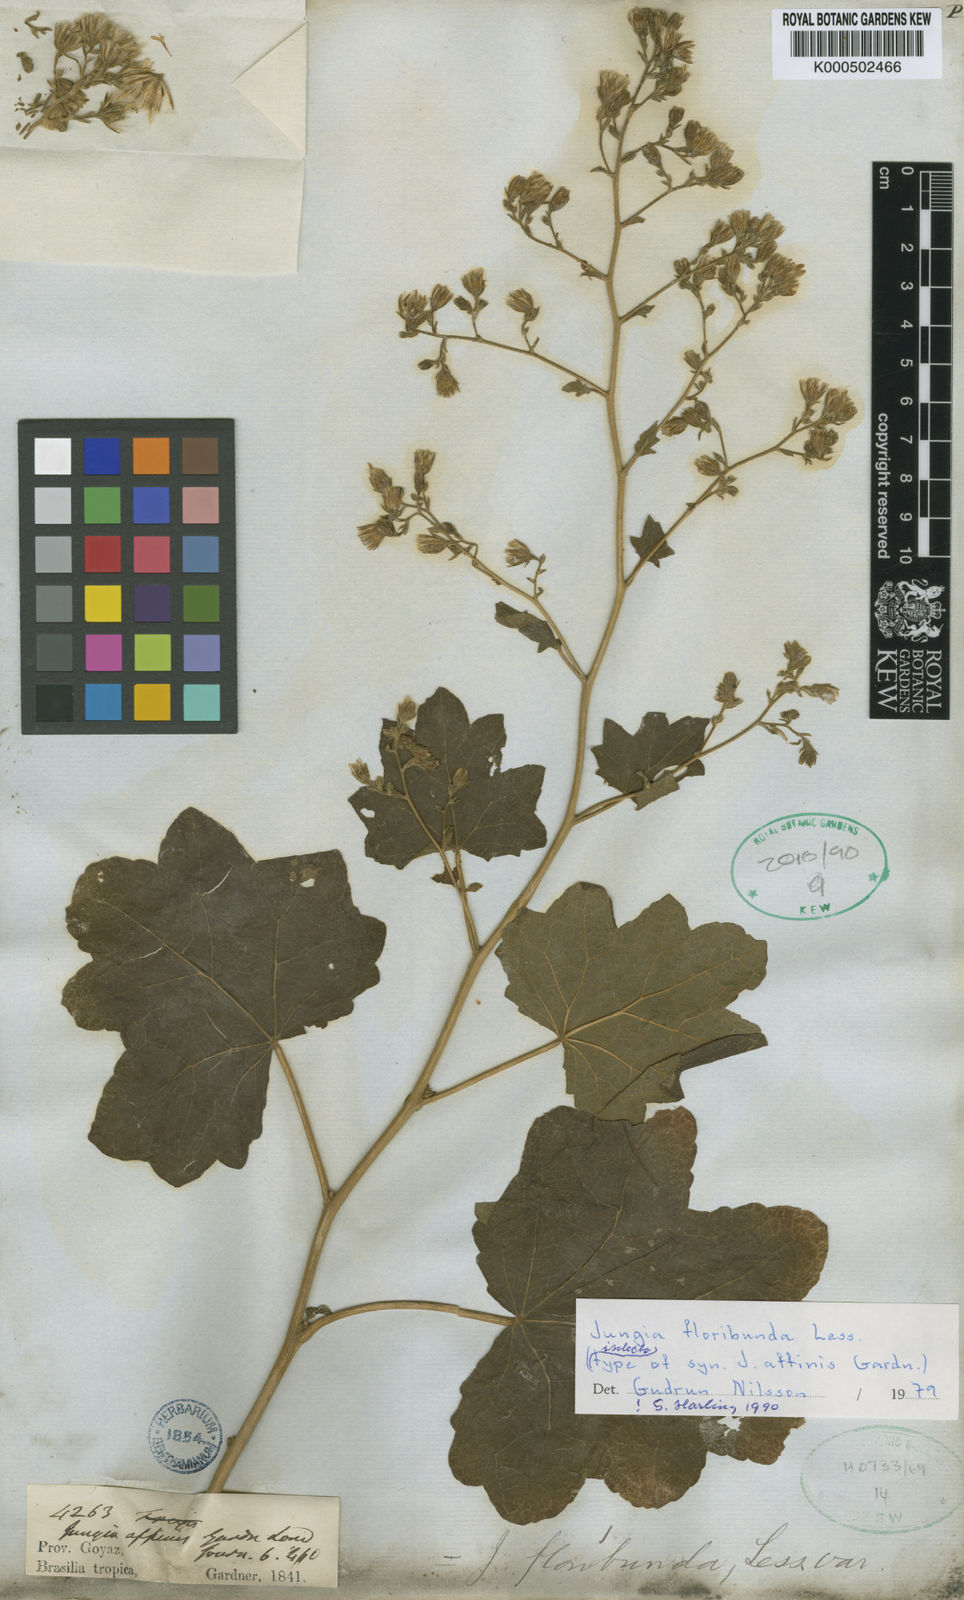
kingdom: Plantae
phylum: Tracheophyta
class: Magnoliopsida
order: Asterales
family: Asteraceae
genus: Jungia
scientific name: Jungia floribunda
